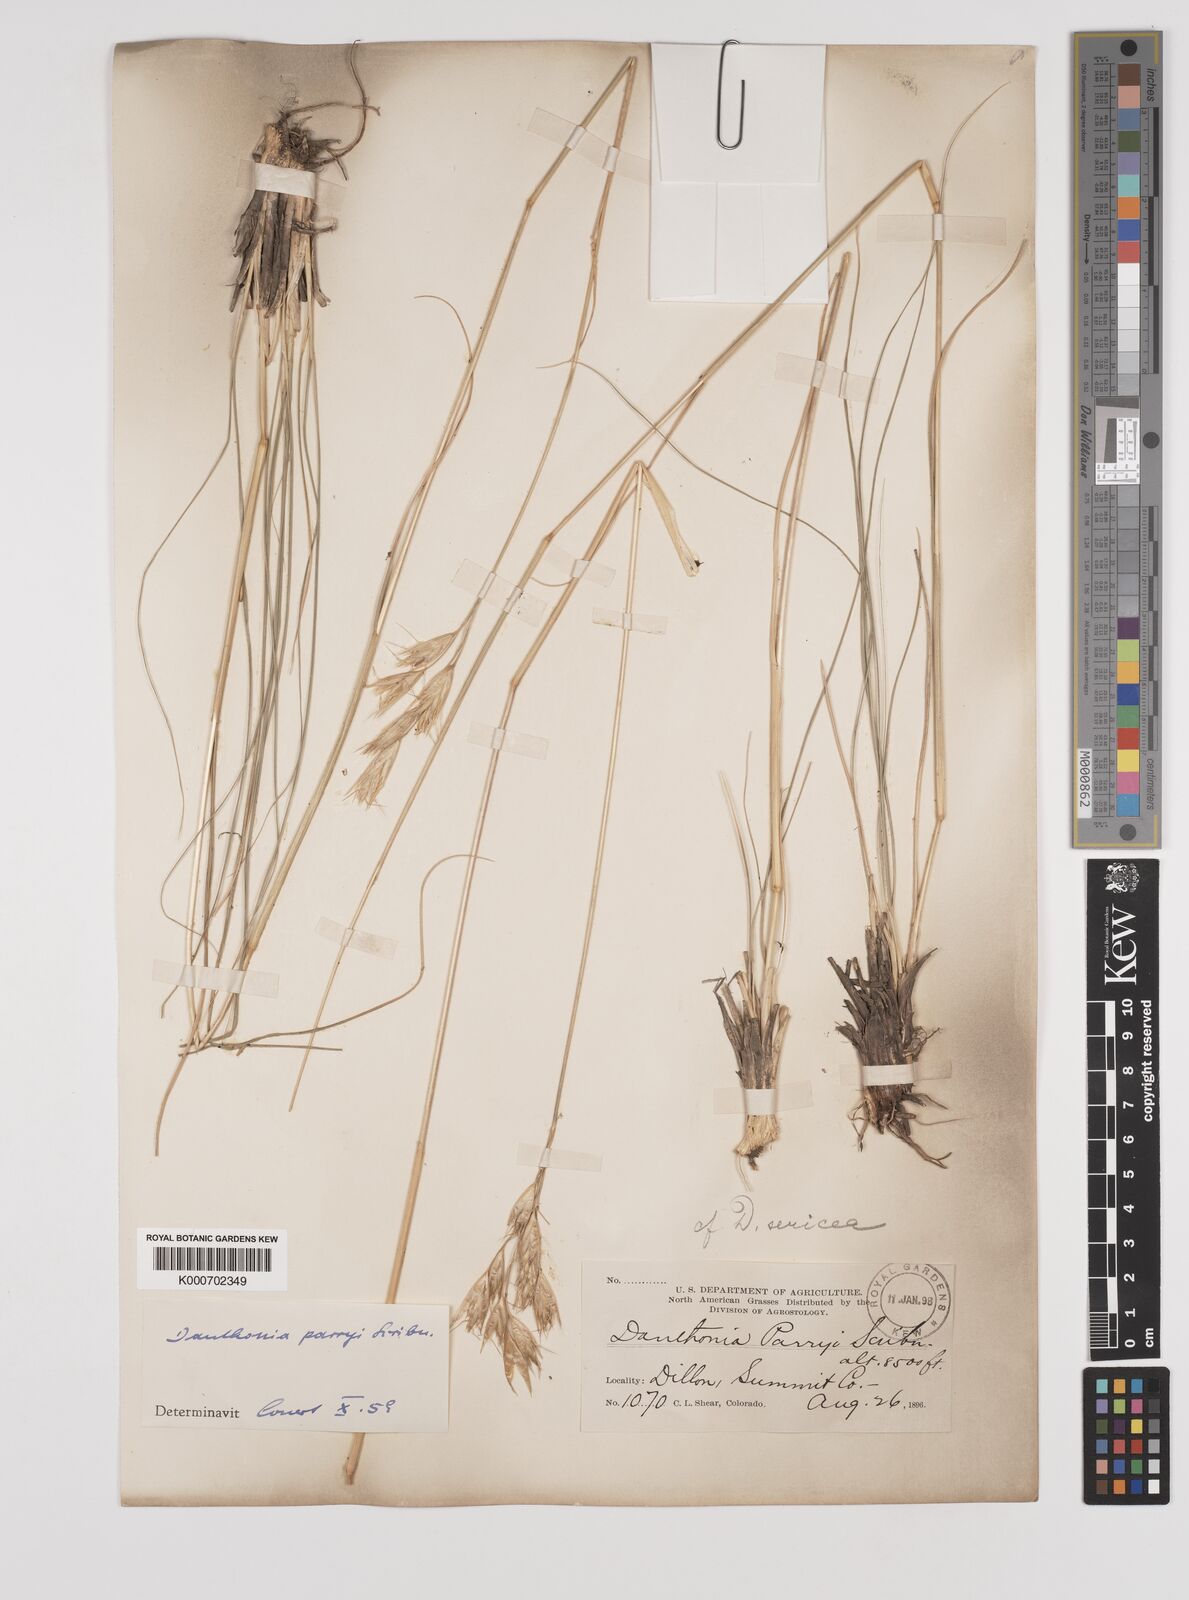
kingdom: Plantae
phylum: Tracheophyta
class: Liliopsida
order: Poales
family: Poaceae
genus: Danthonia
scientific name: Danthonia parryi
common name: Parry's oat grass
